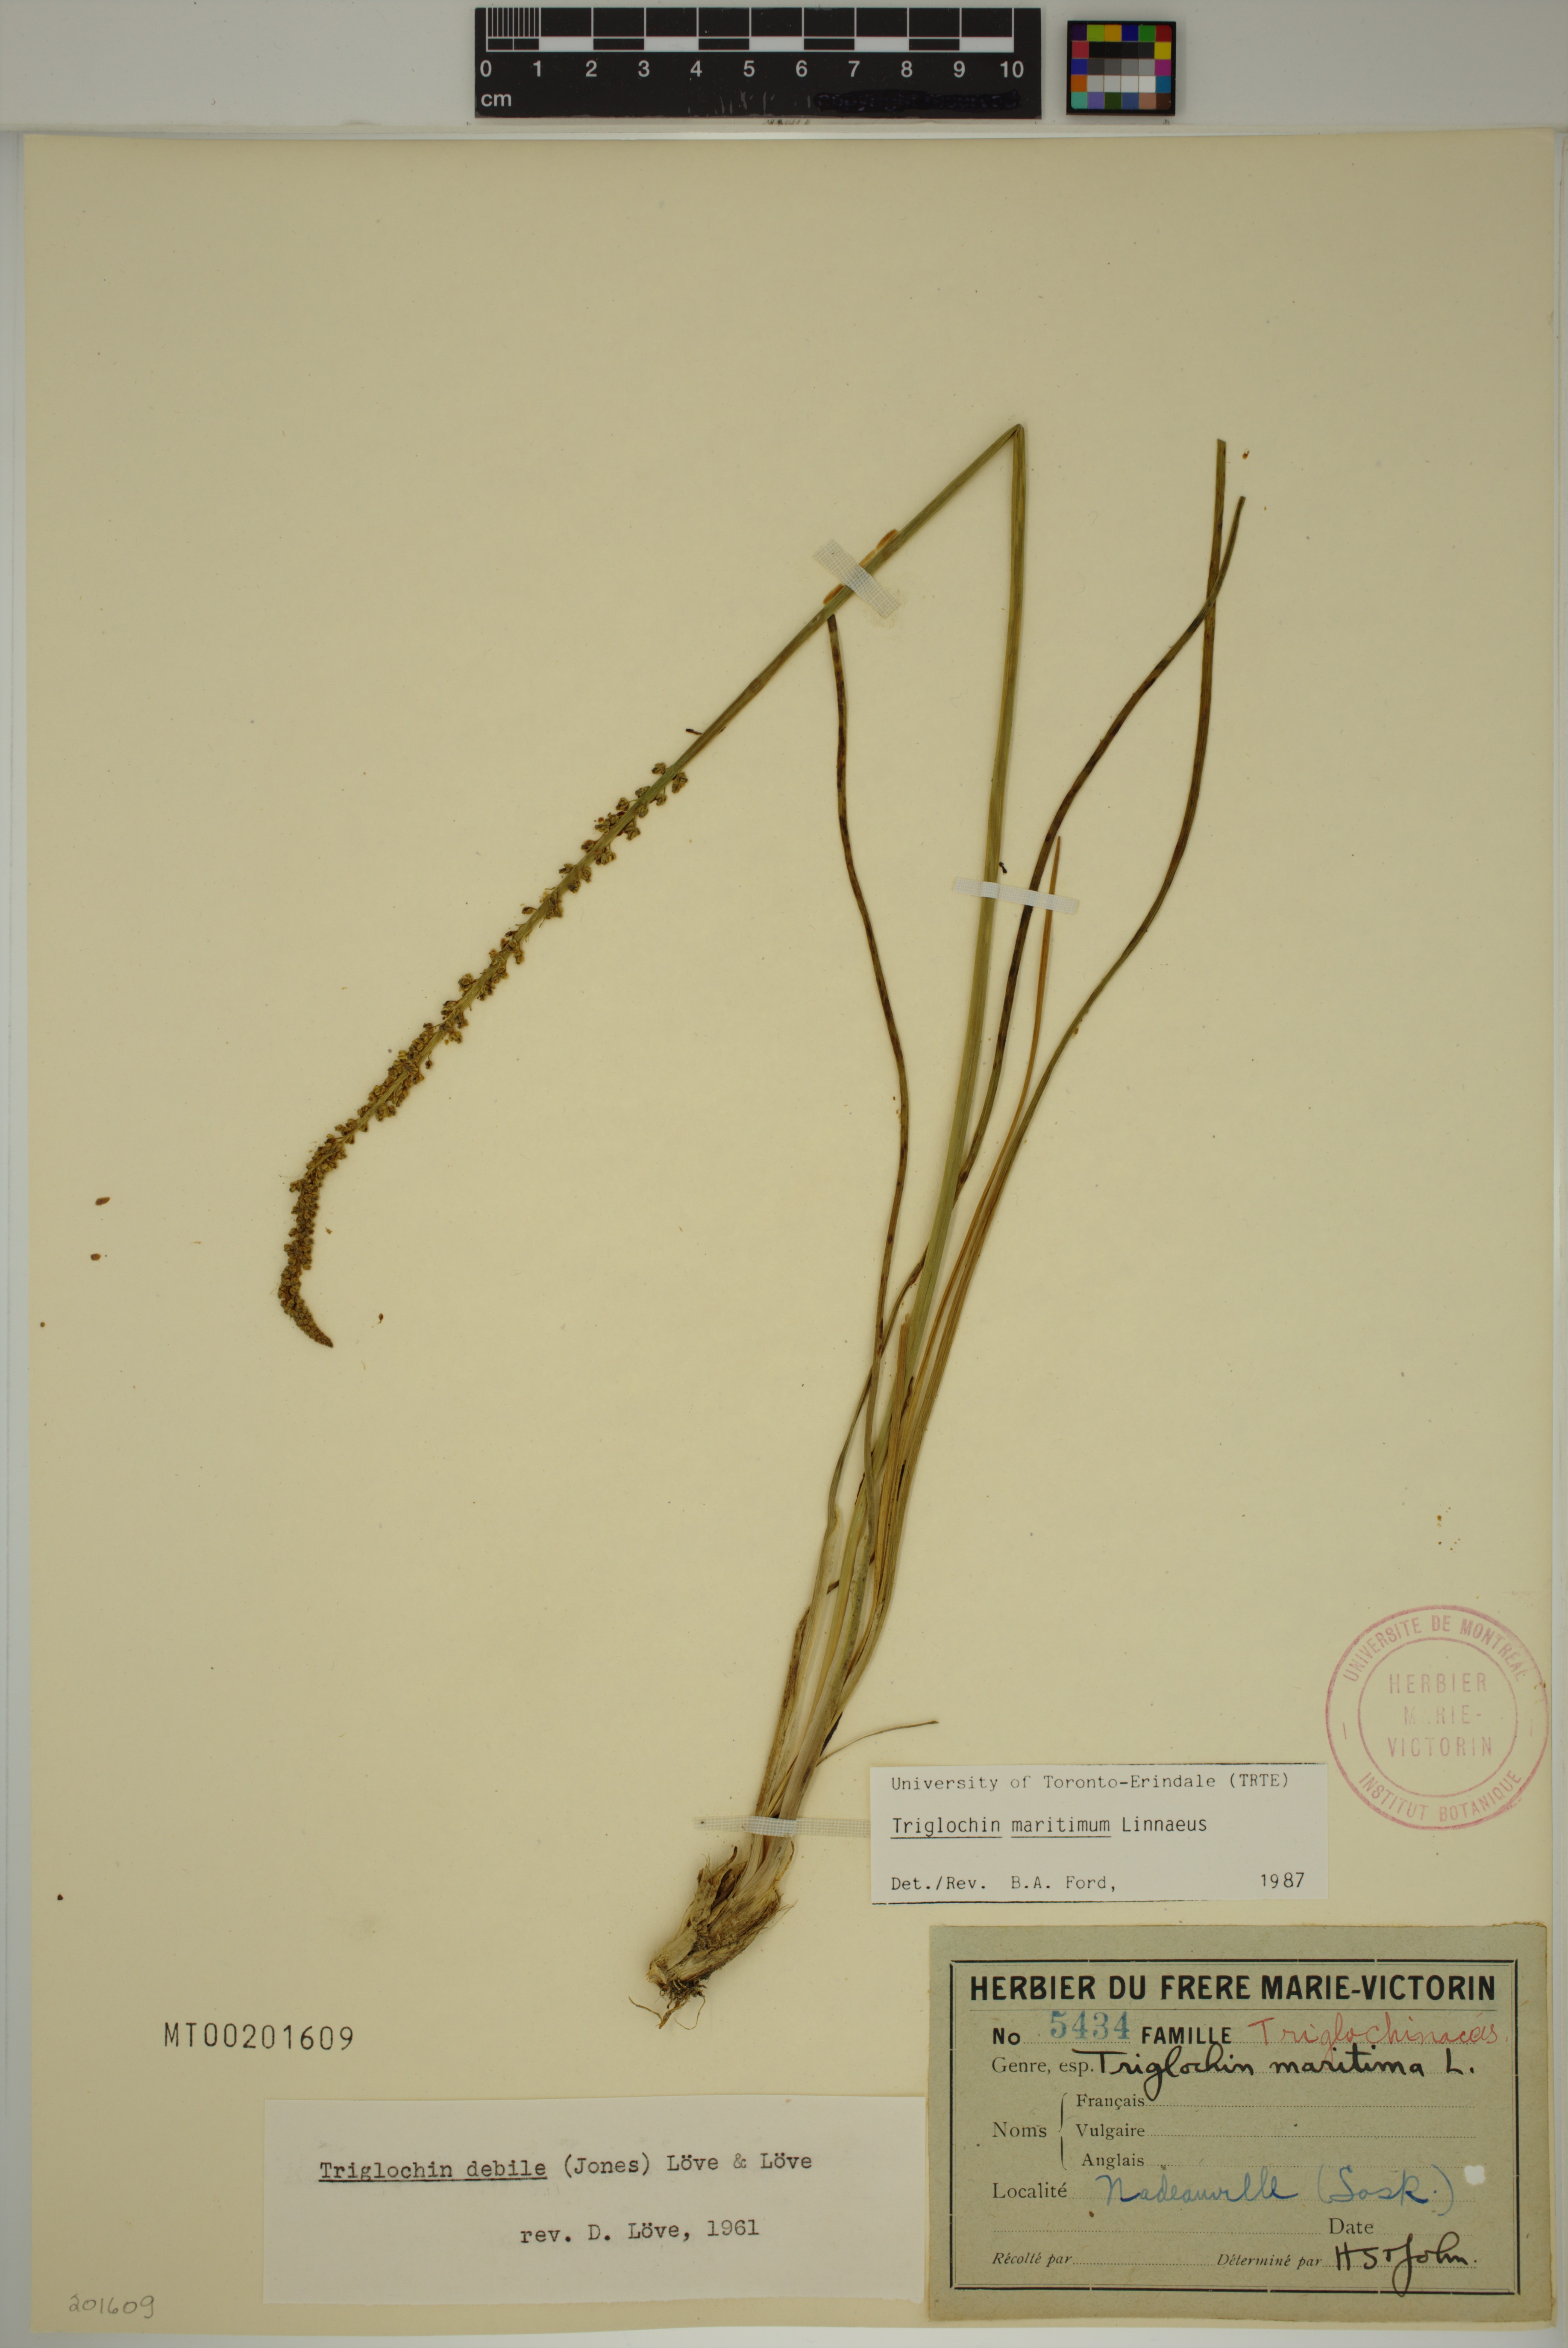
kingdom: Plantae
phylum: Tracheophyta
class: Liliopsida
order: Alismatales
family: Juncaginaceae
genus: Triglochin
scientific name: Triglochin maritima
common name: Sea arrowgrass
